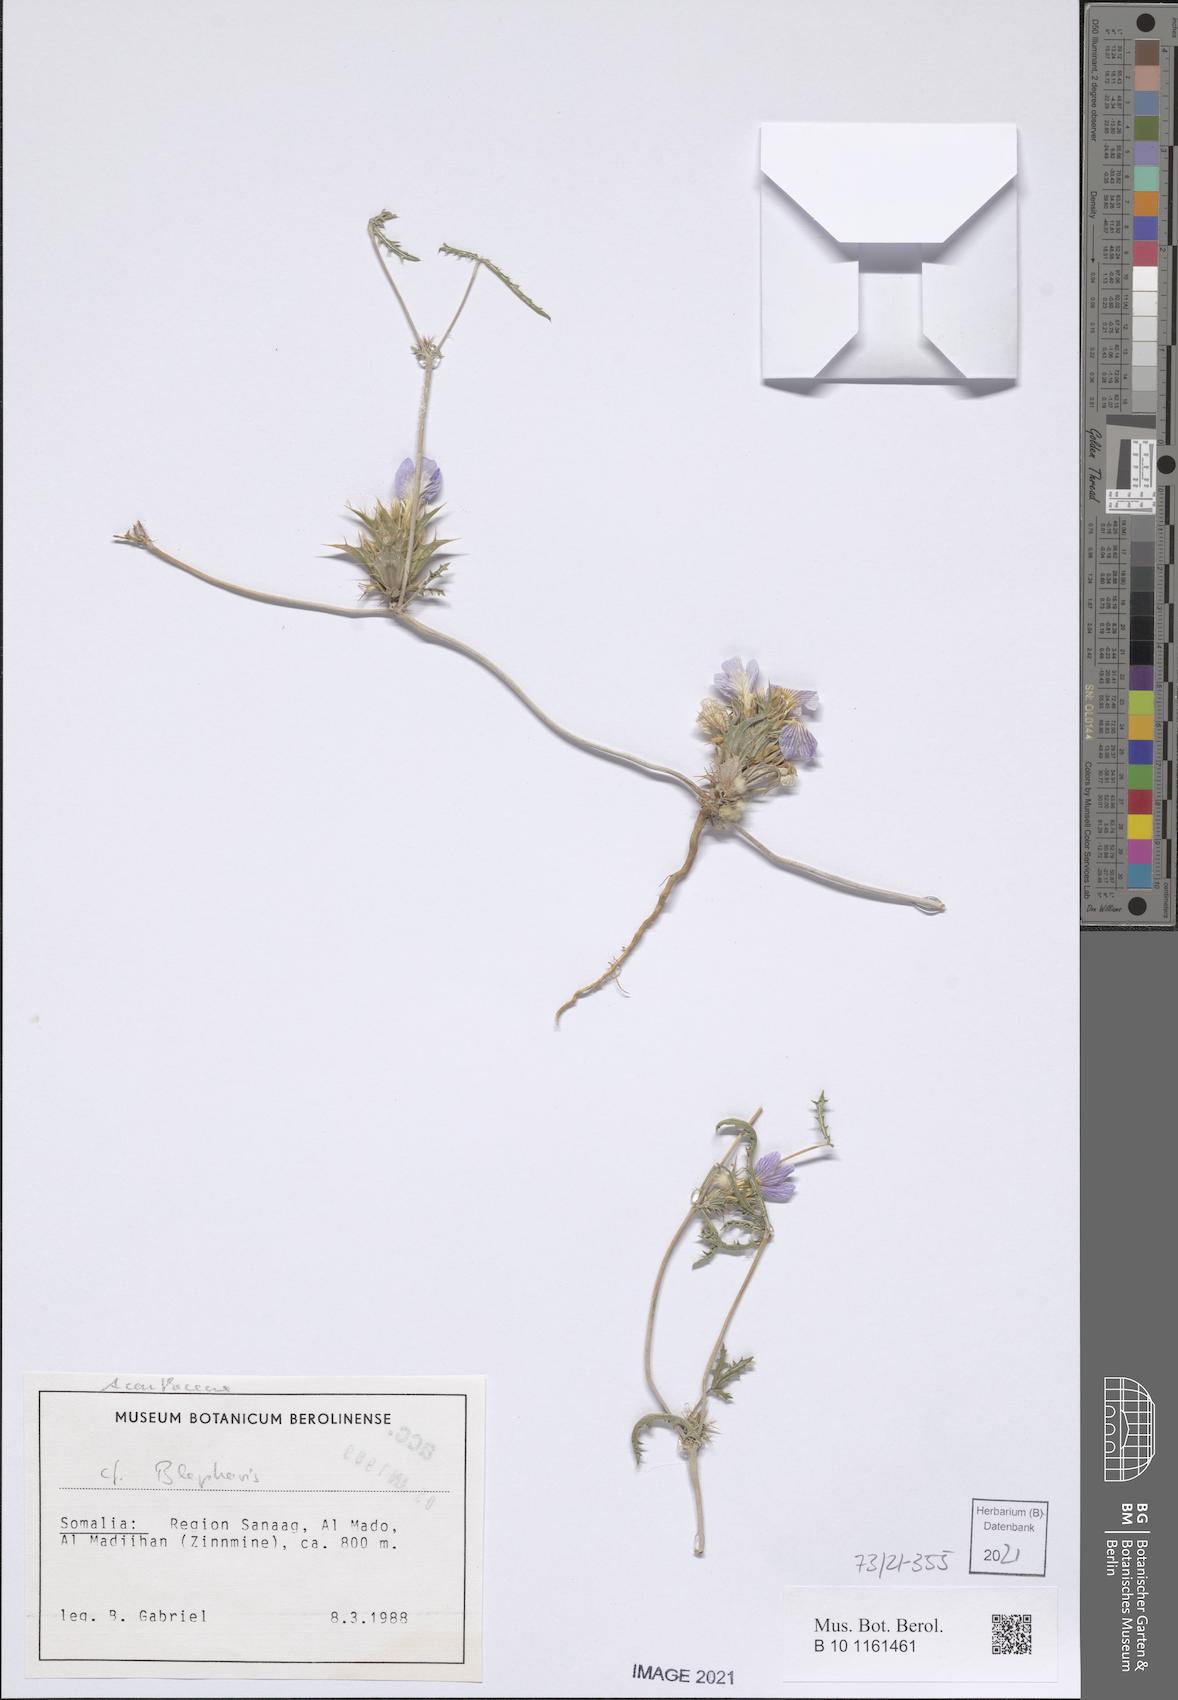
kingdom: Plantae
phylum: Tracheophyta
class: Magnoliopsida
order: Lamiales
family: Acanthaceae
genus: Blepharis
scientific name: Blepharis edulis
